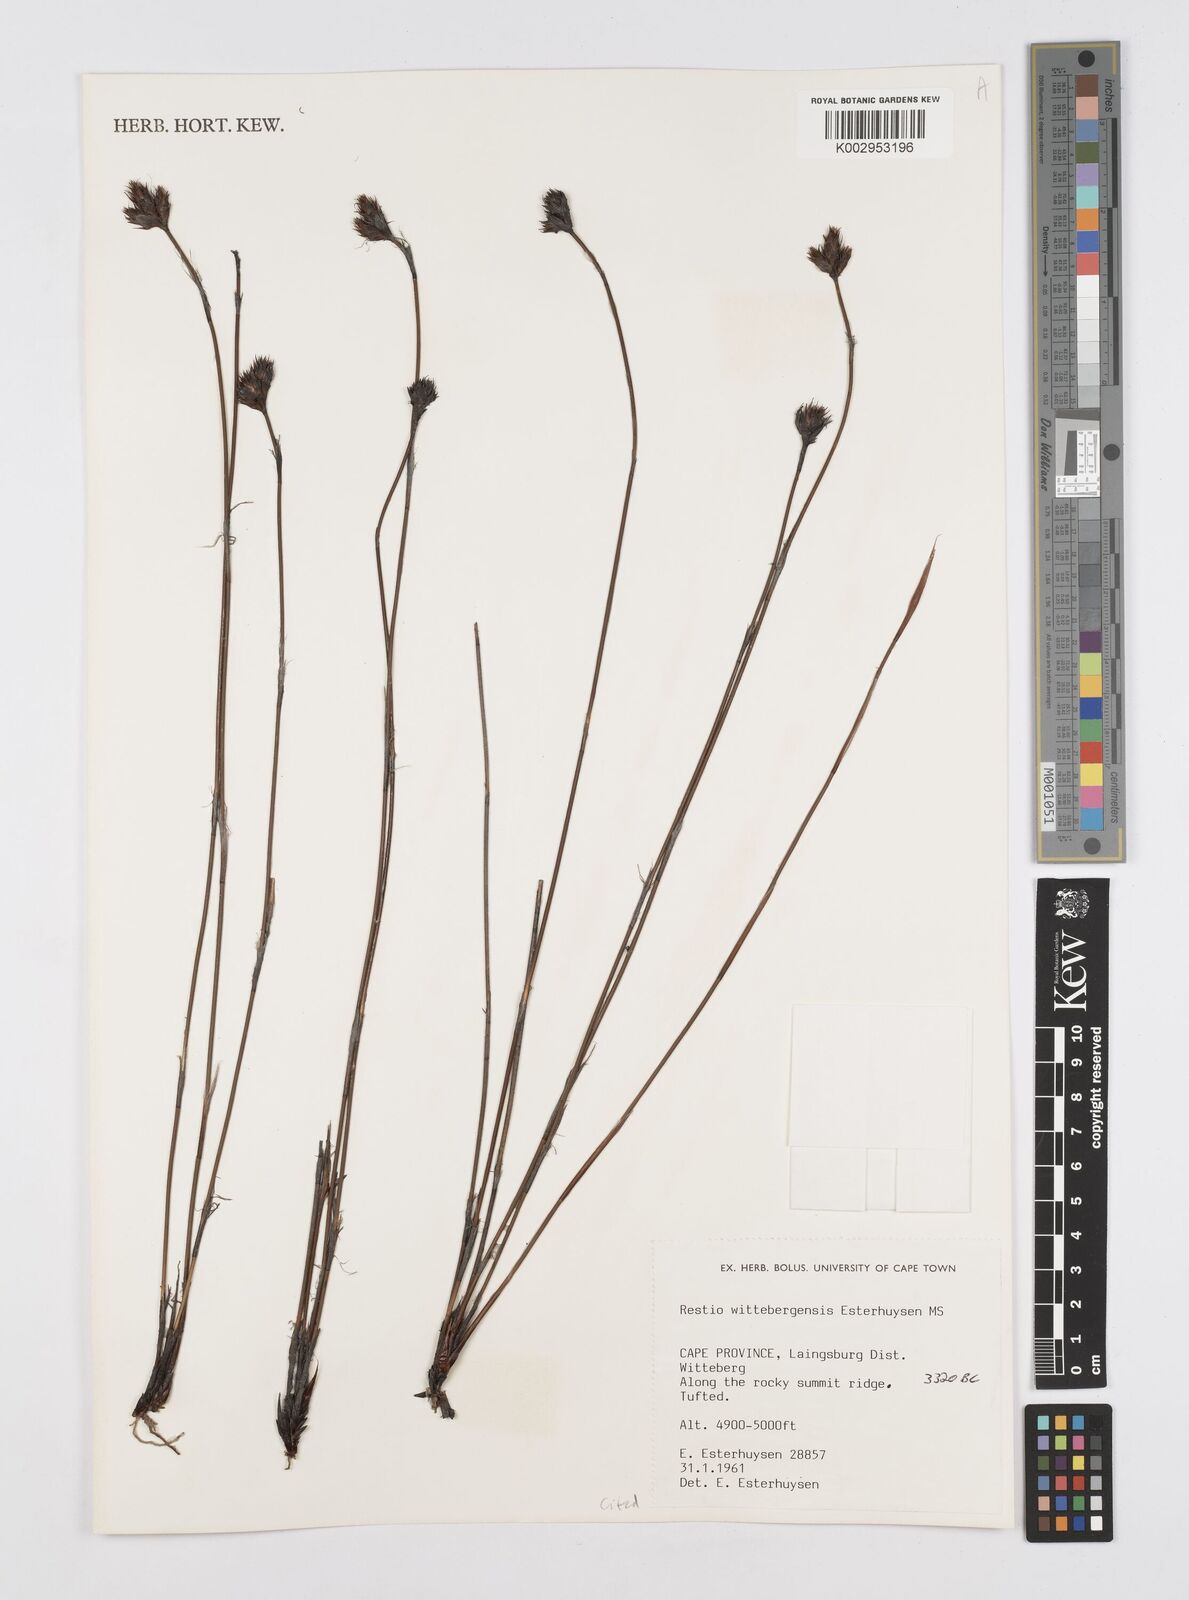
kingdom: Plantae
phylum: Tracheophyta
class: Liliopsida
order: Poales
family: Restionaceae
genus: Restio
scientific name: Restio wittebergensis
